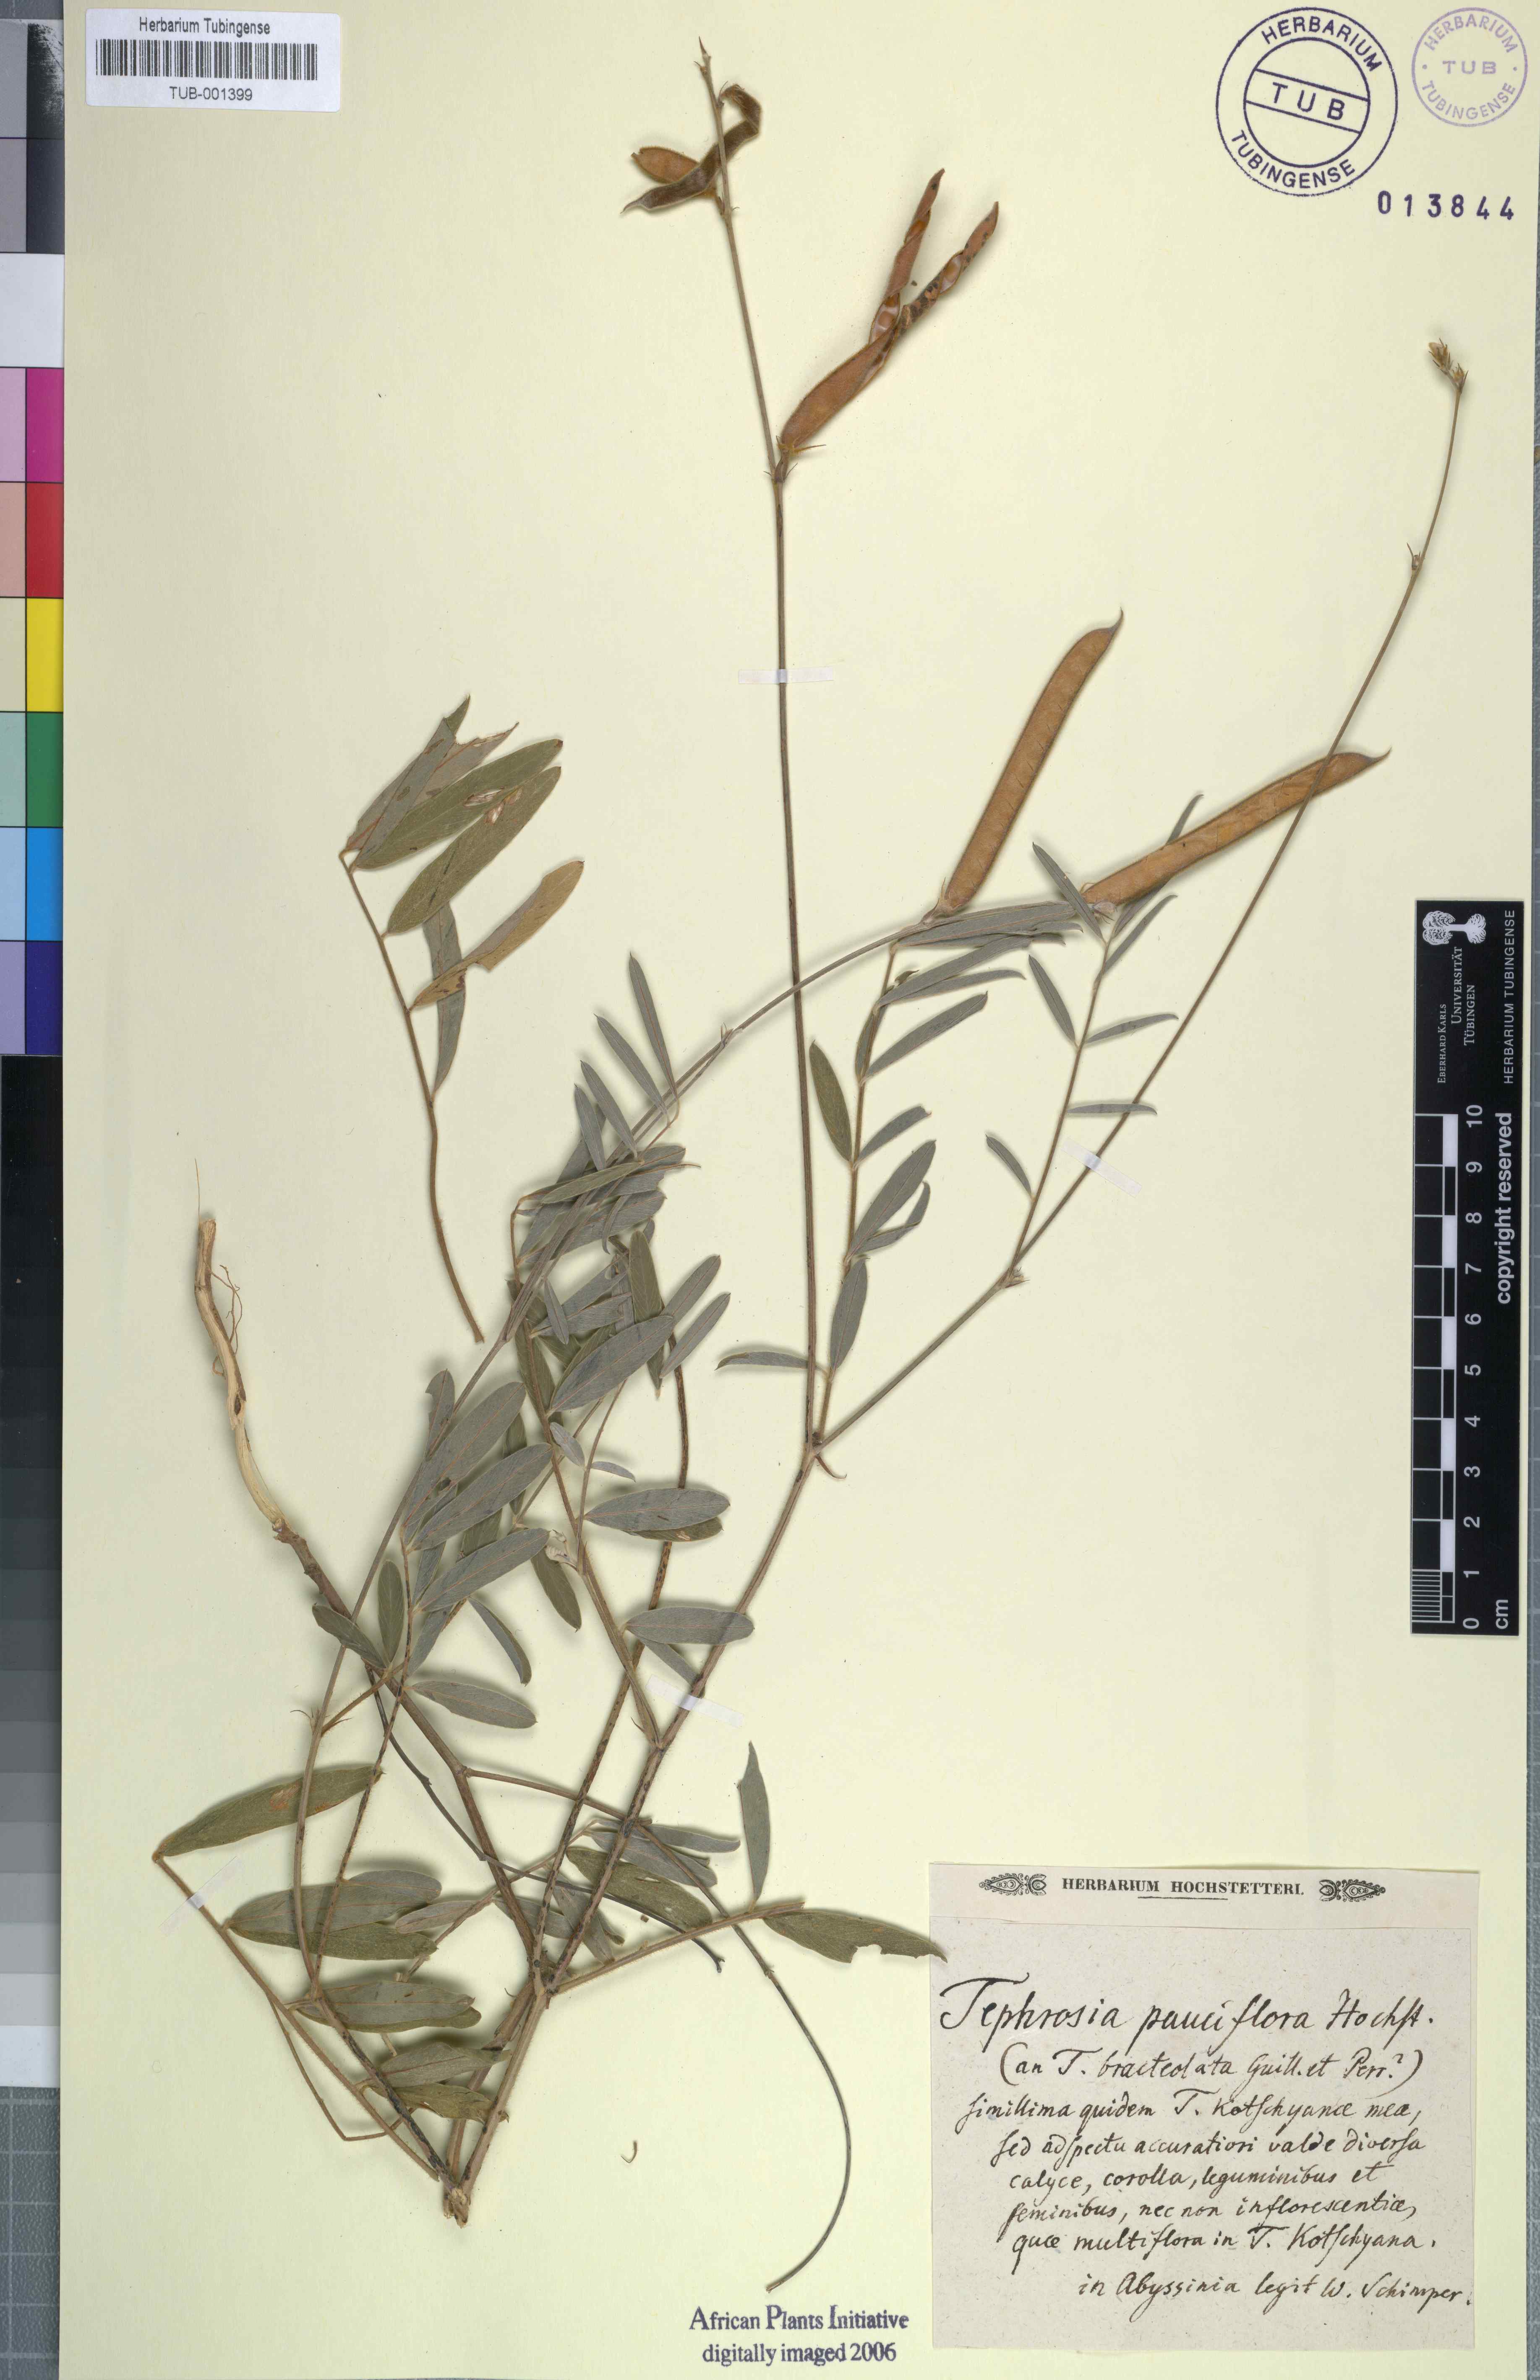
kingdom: Plantae
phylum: Tracheophyta
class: Magnoliopsida
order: Fabales
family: Fabaceae
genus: Tephrosia
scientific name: Tephrosia subtriflora
